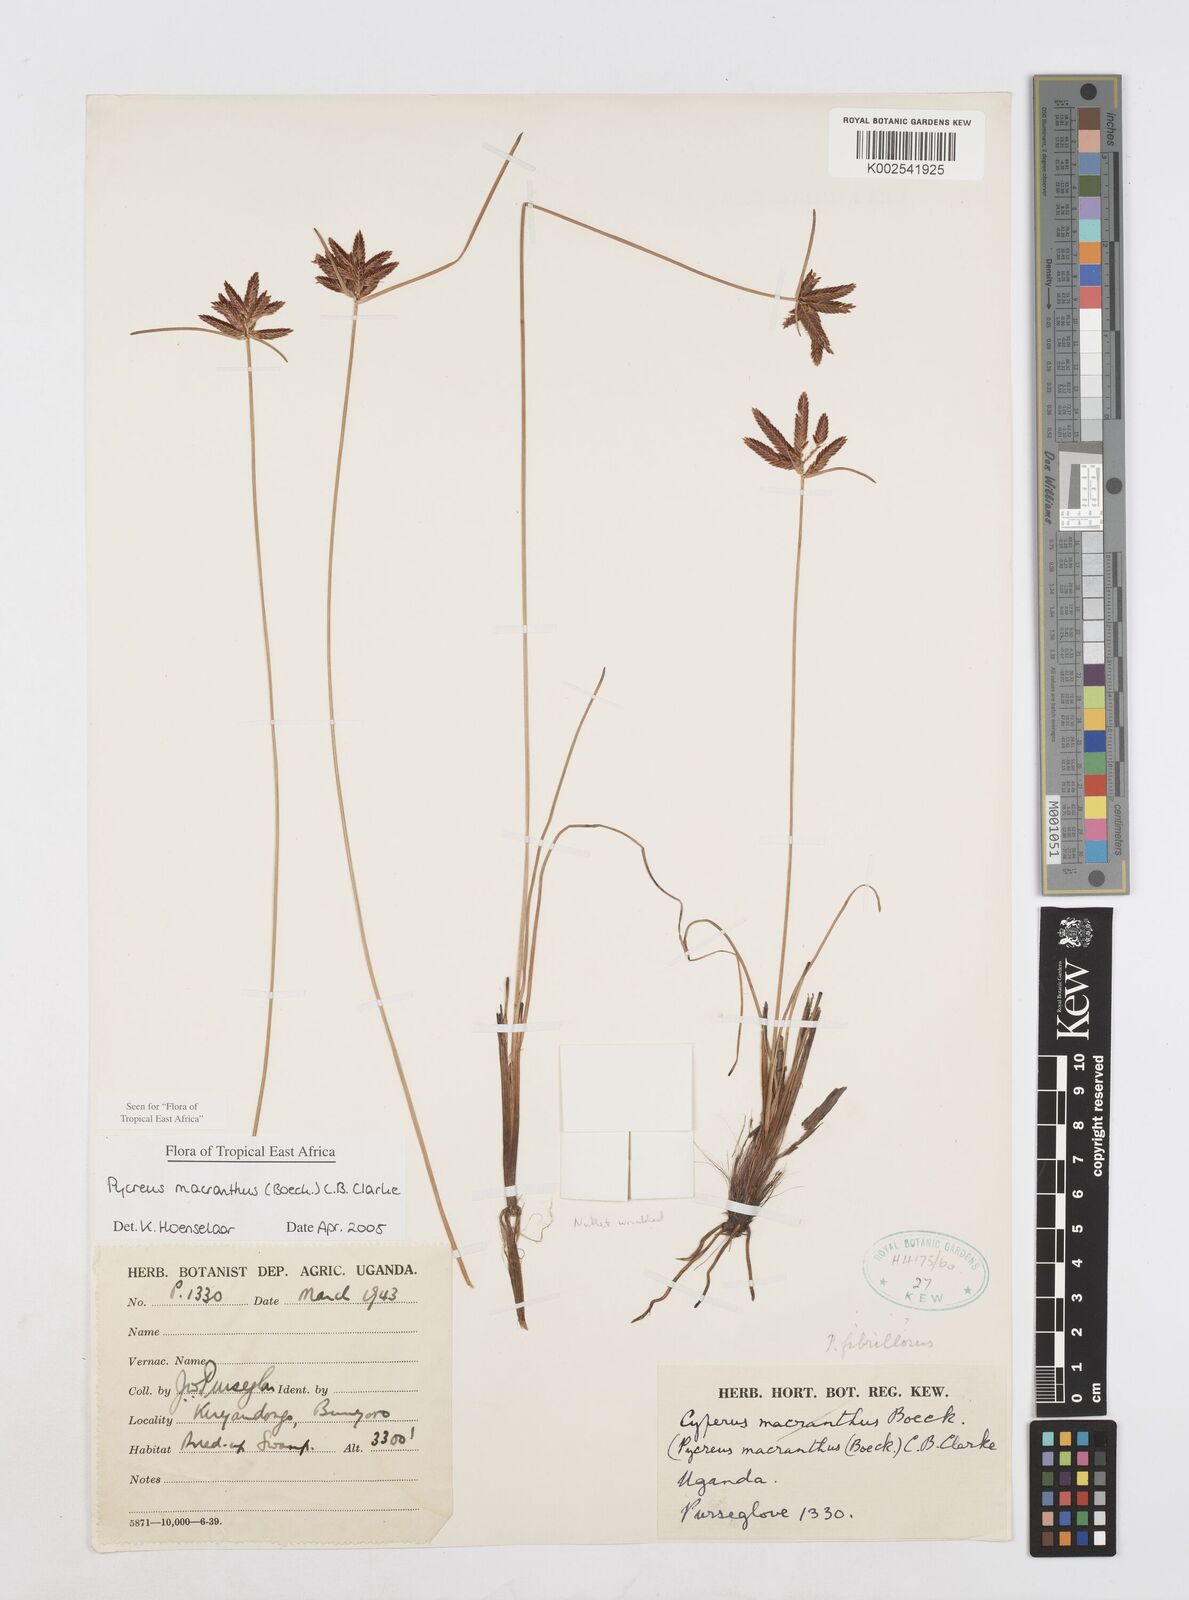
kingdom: Plantae
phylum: Tracheophyta
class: Liliopsida
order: Poales
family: Cyperaceae
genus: Cyperus
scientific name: Cyperus nigricans
